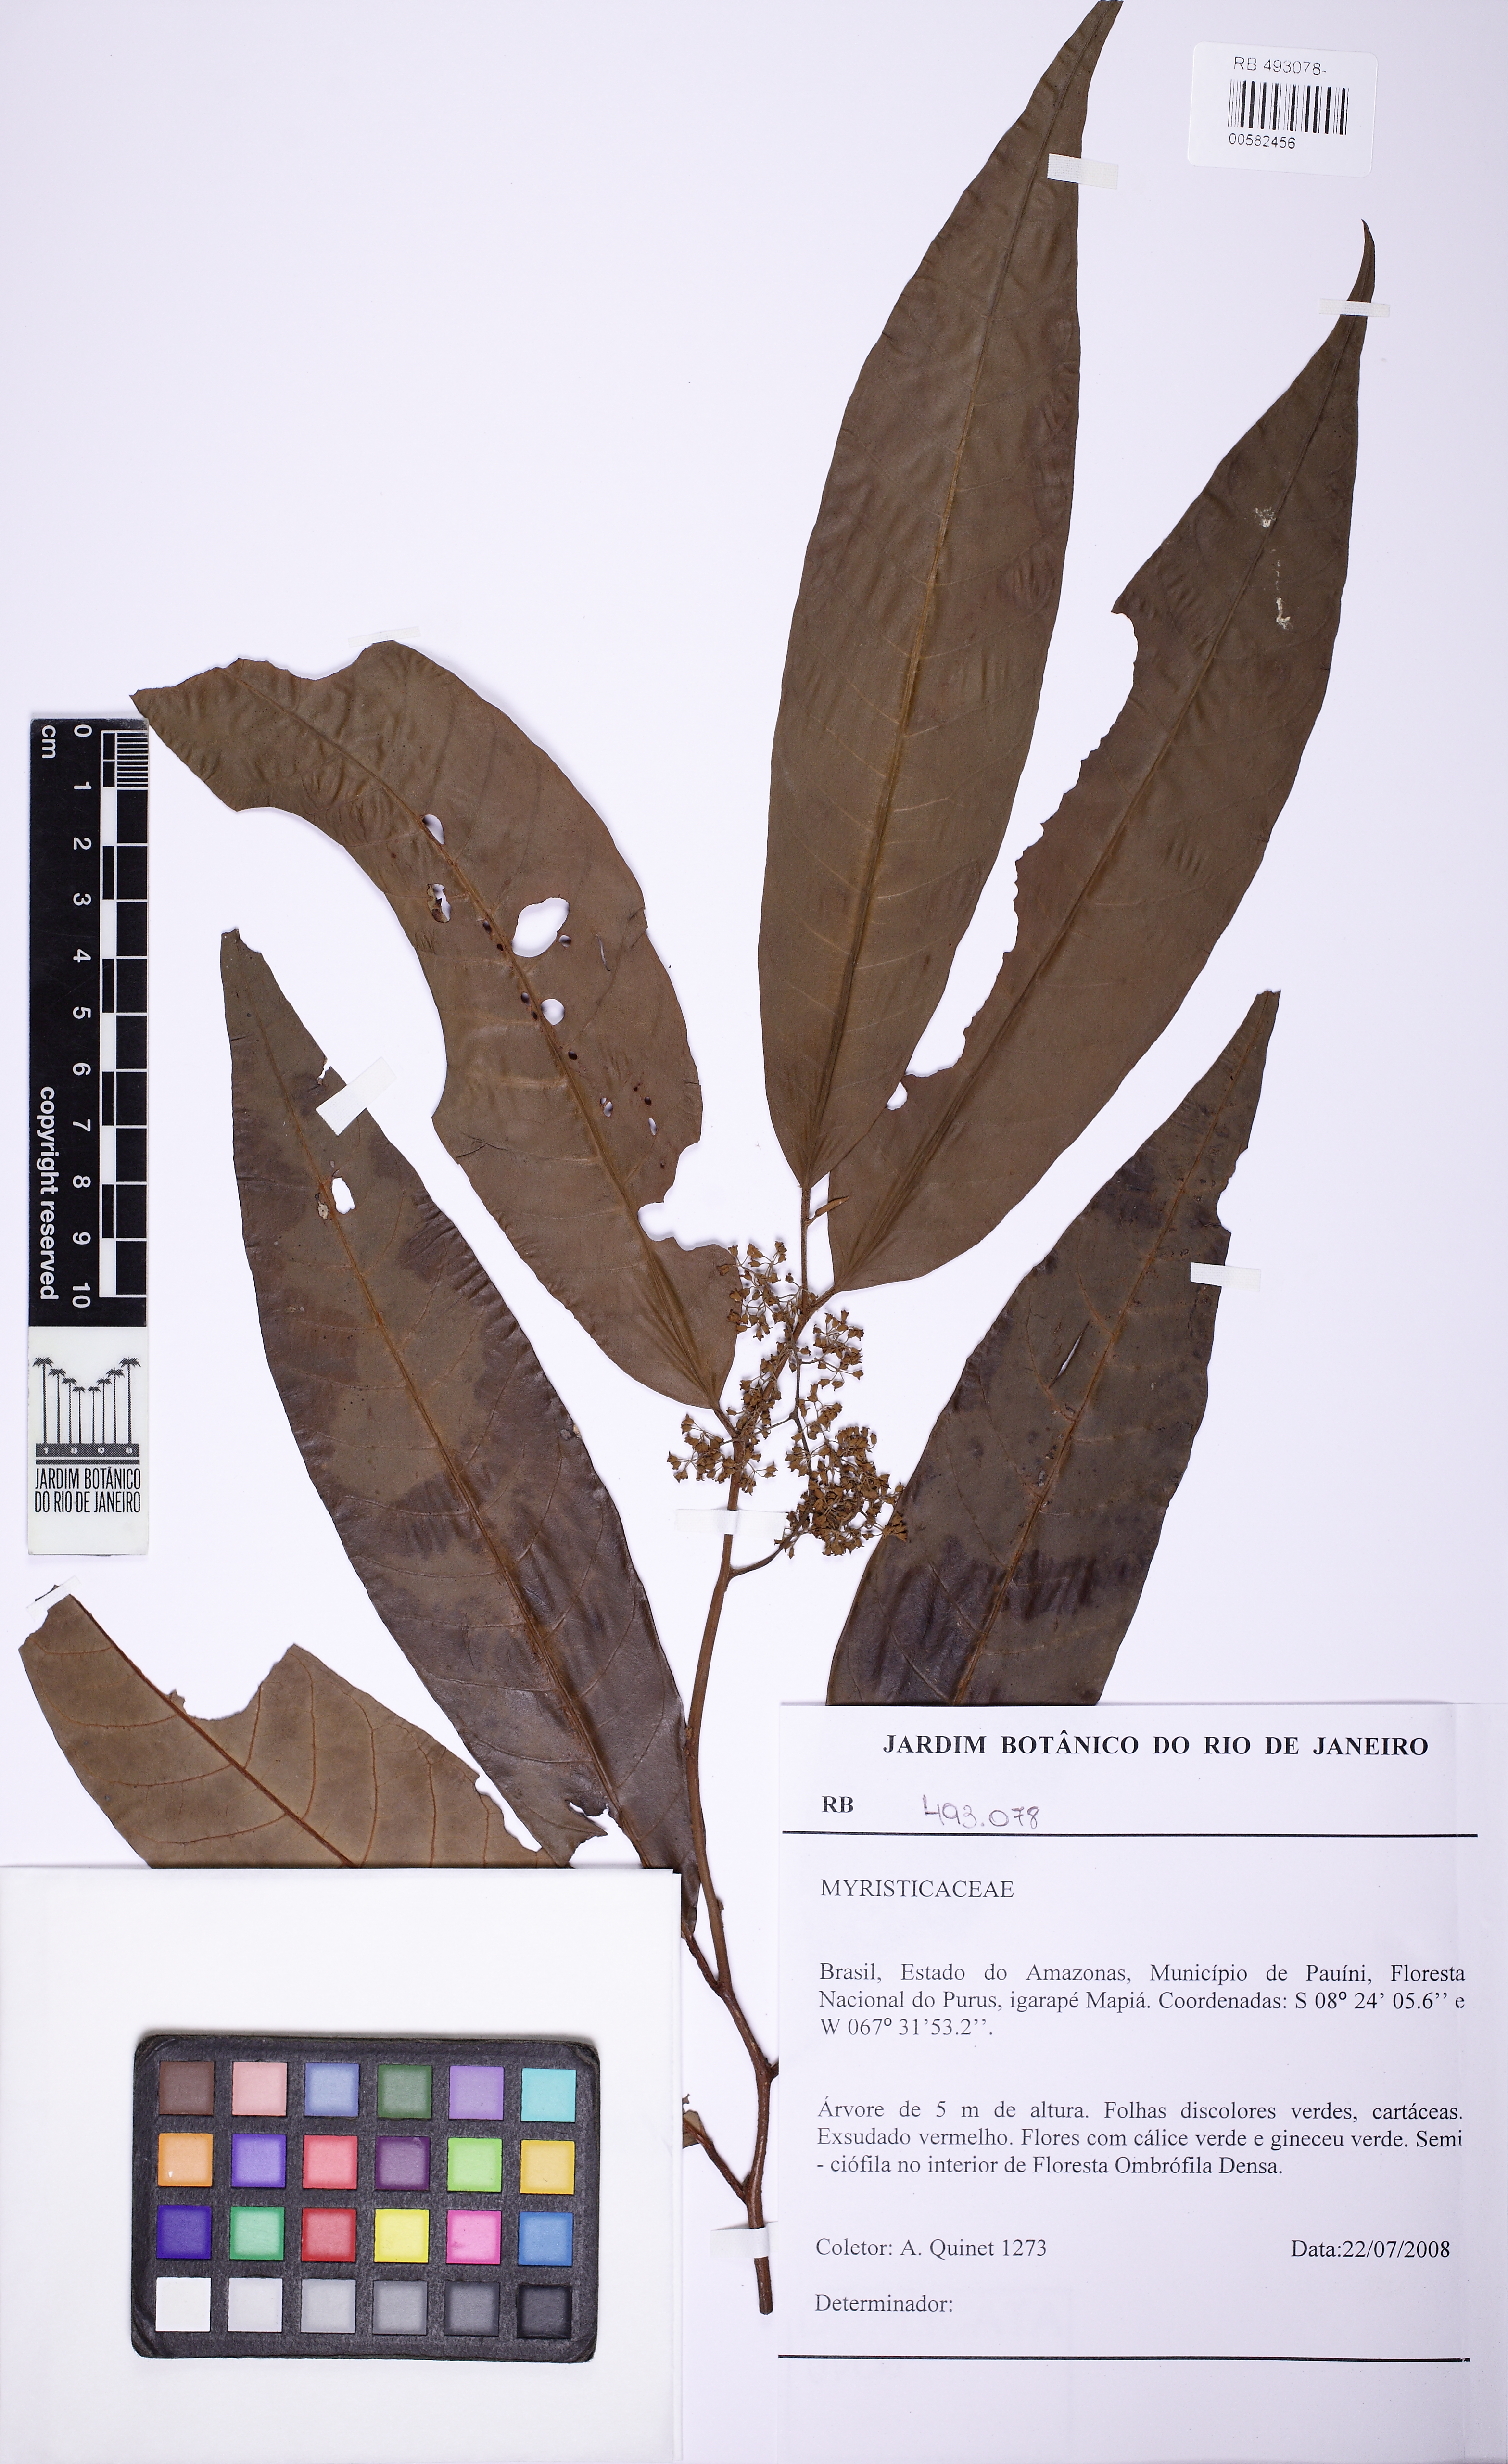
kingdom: Plantae
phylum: Tracheophyta
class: Magnoliopsida
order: Magnoliales
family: Myristicaceae
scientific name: Myristicaceae
